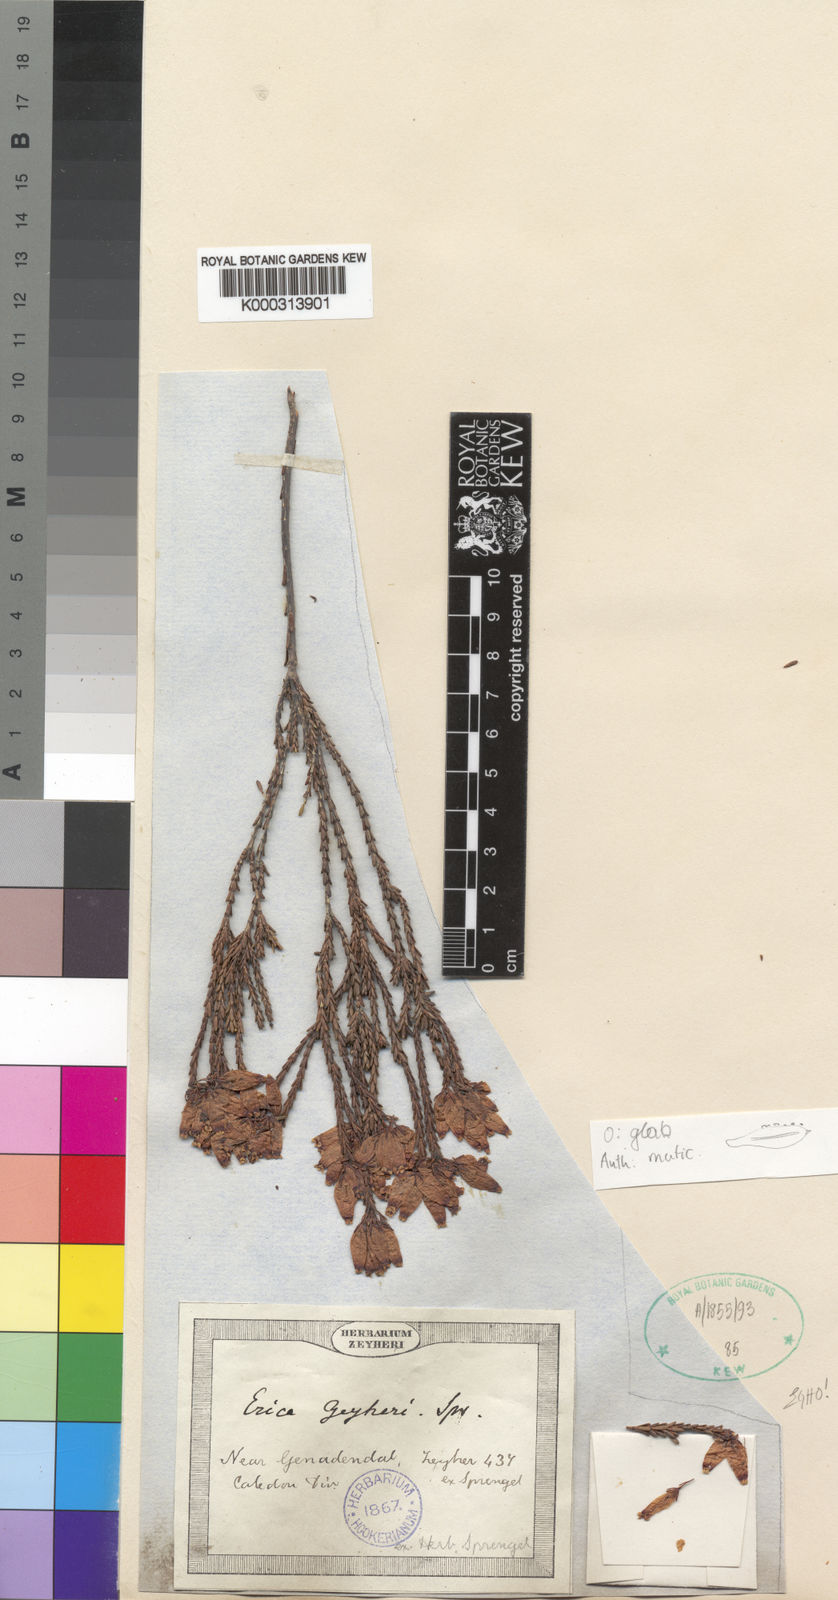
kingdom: Plantae
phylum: Tracheophyta
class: Magnoliopsida
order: Ericales
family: Ericaceae
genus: Erica
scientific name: Erica curvifolia
